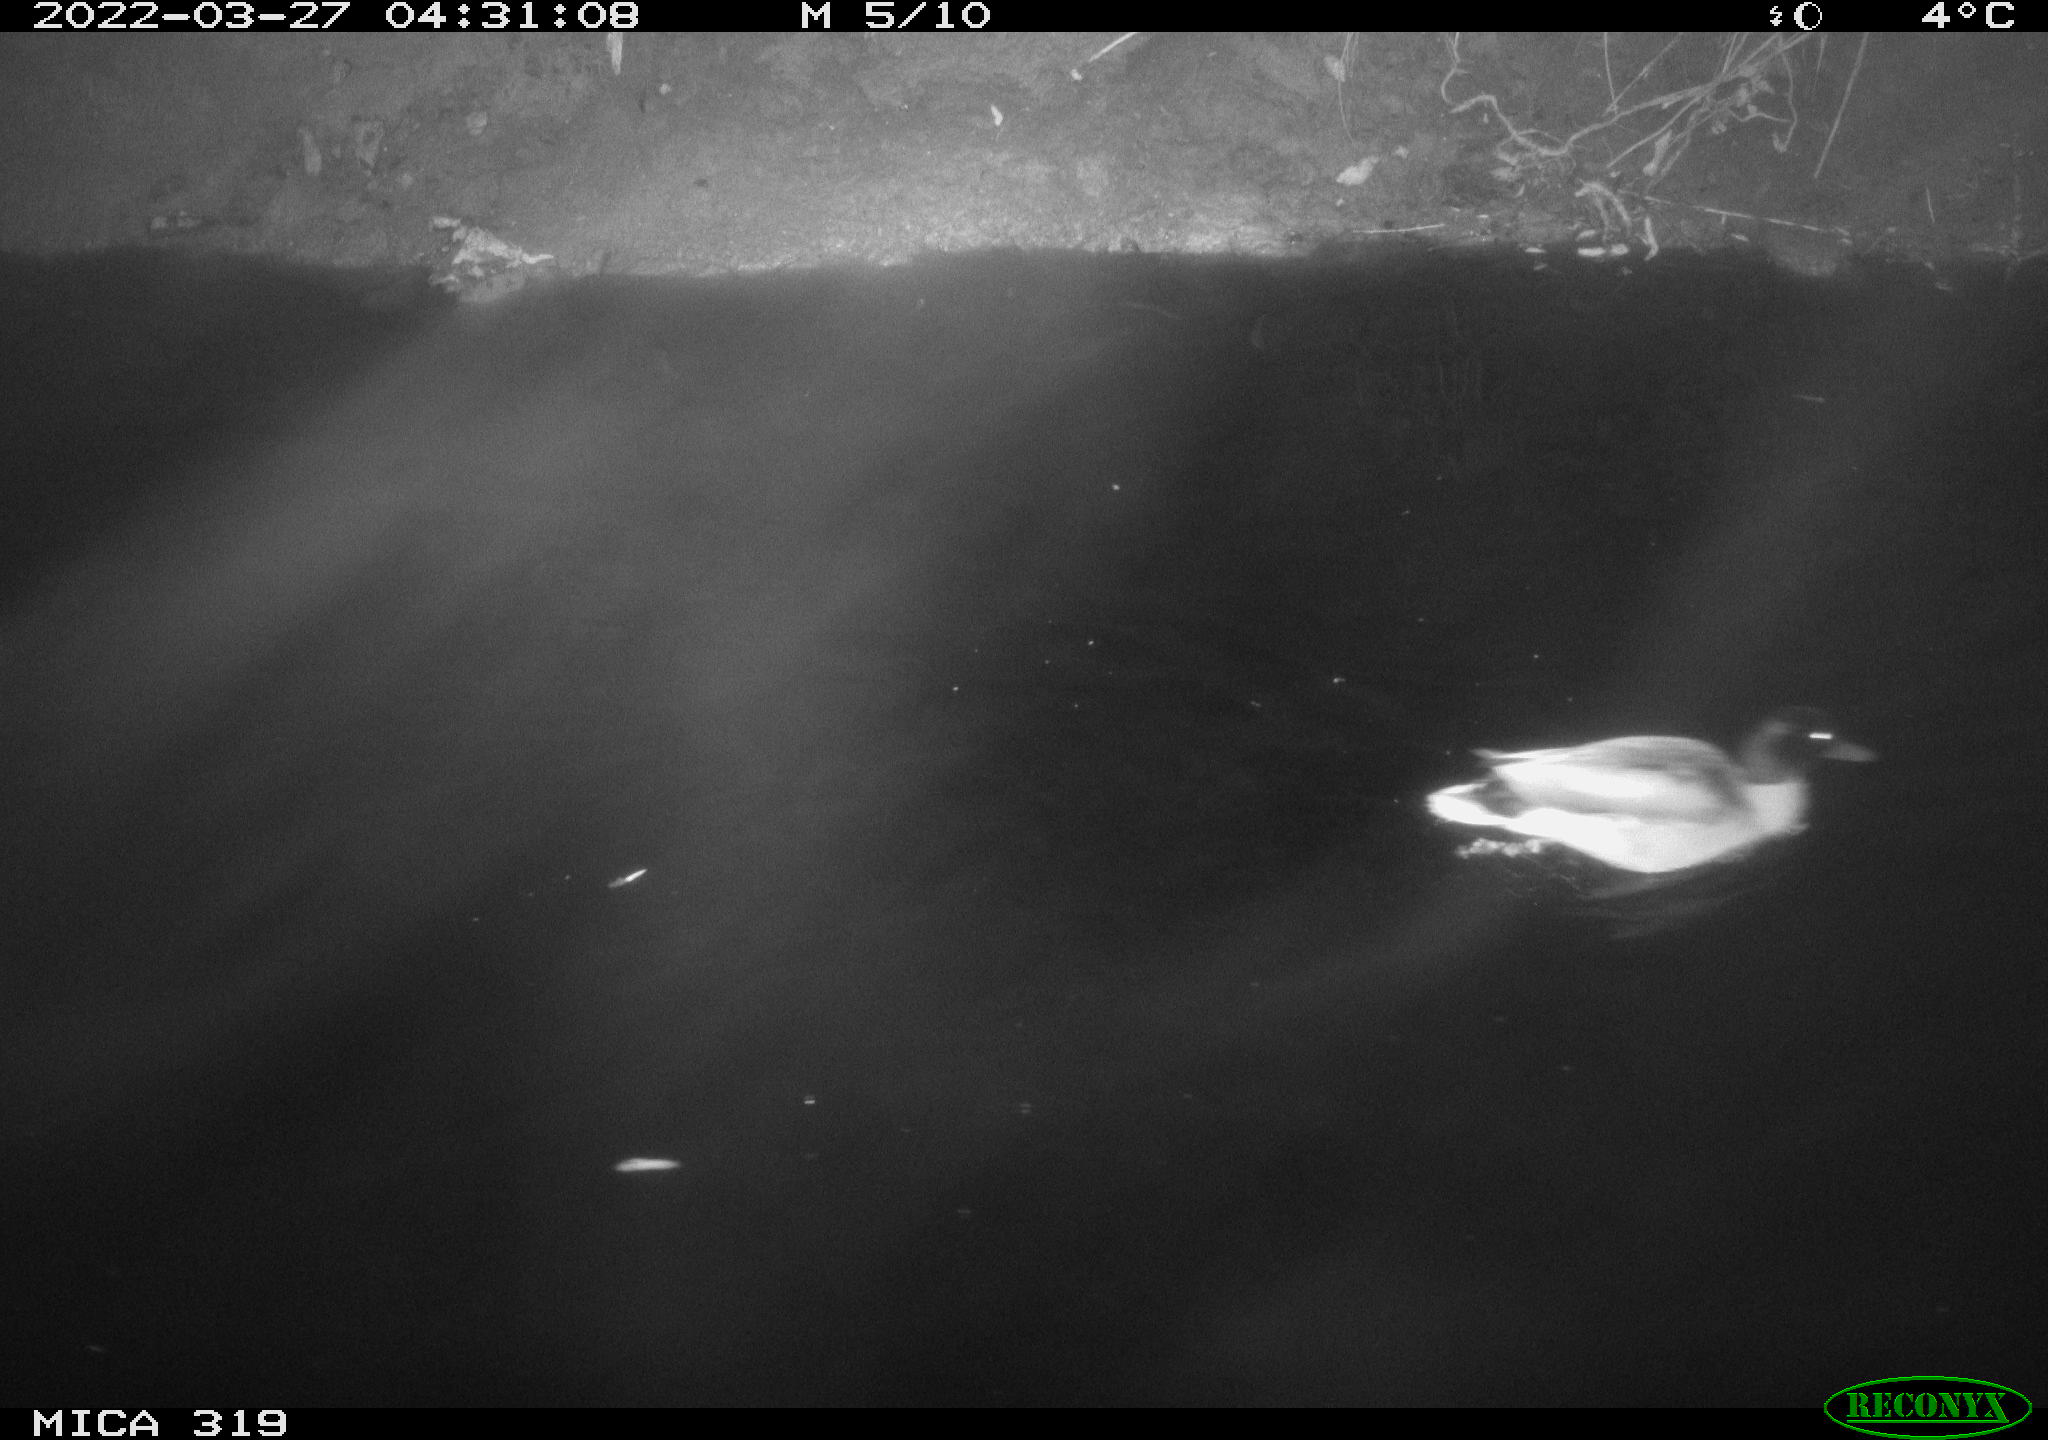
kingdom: Animalia
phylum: Chordata
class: Aves
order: Anseriformes
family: Anatidae
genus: Anas
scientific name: Anas platyrhynchos
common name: Mallard
